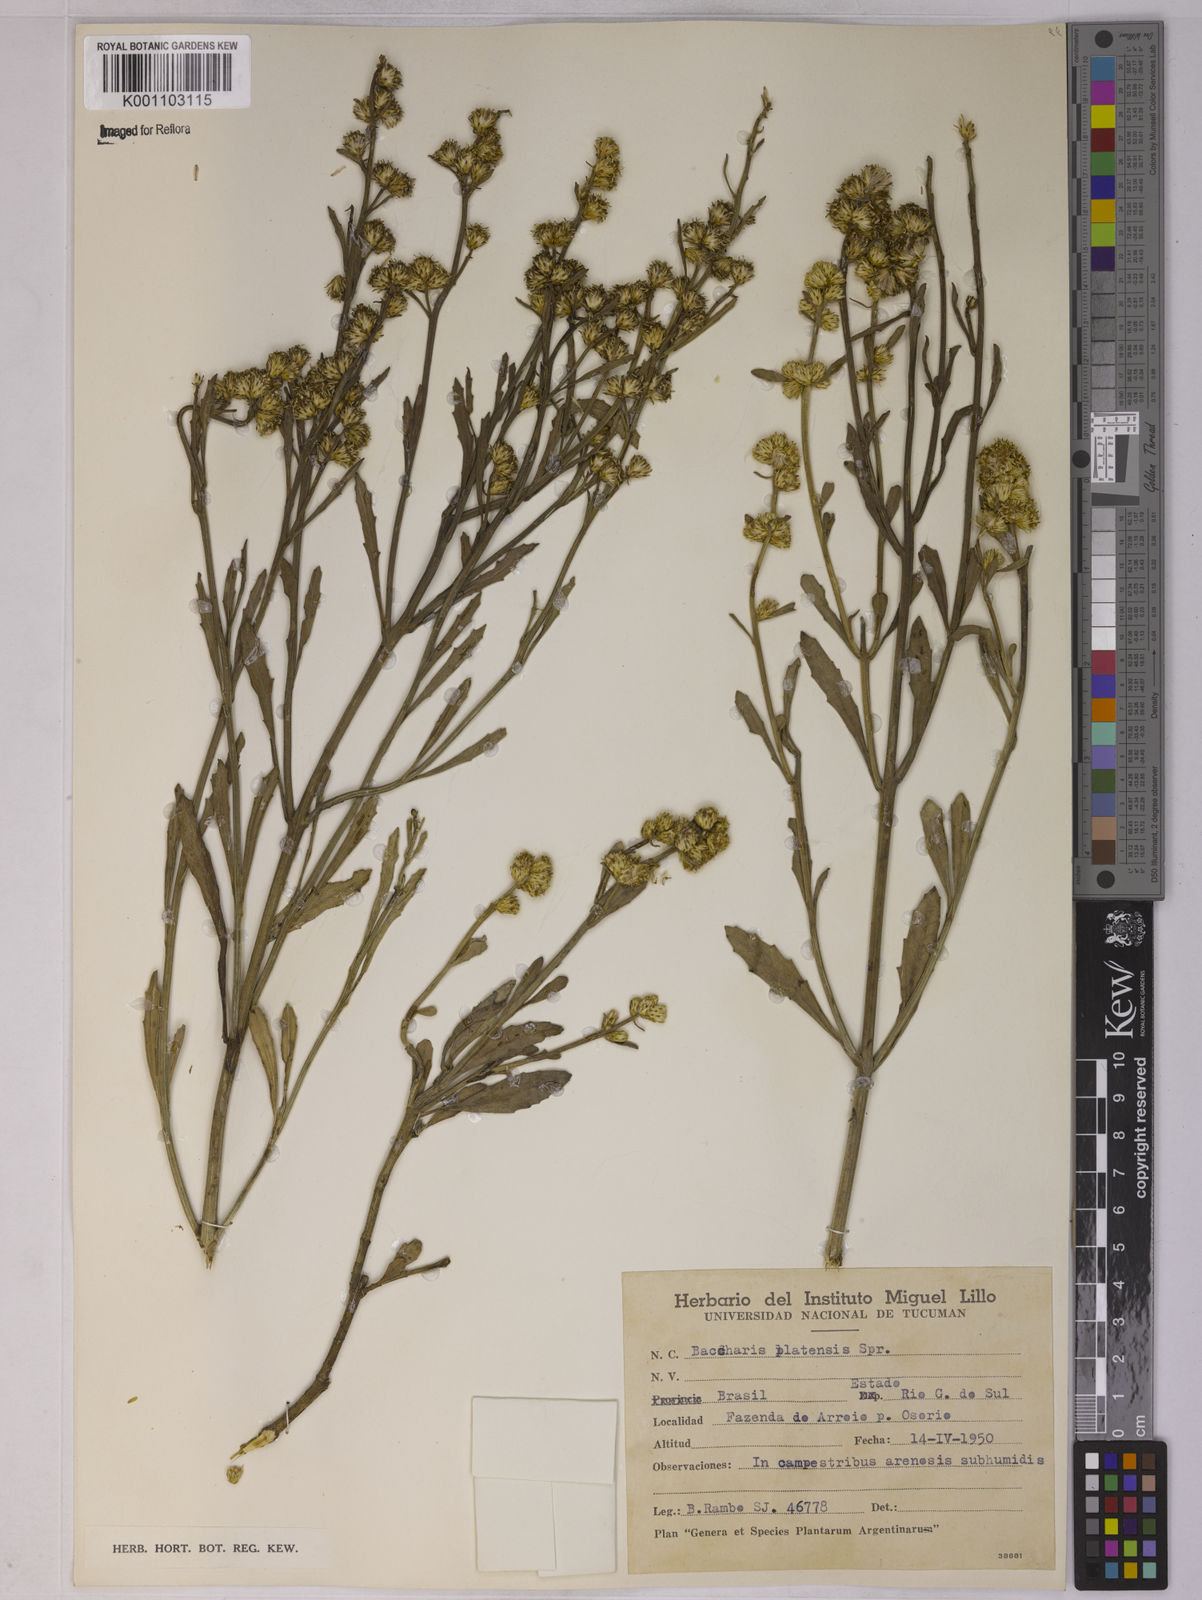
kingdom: Plantae
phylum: Tracheophyta
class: Magnoliopsida
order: Asterales
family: Asteraceae
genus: Baccharis
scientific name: Baccharis spicata
